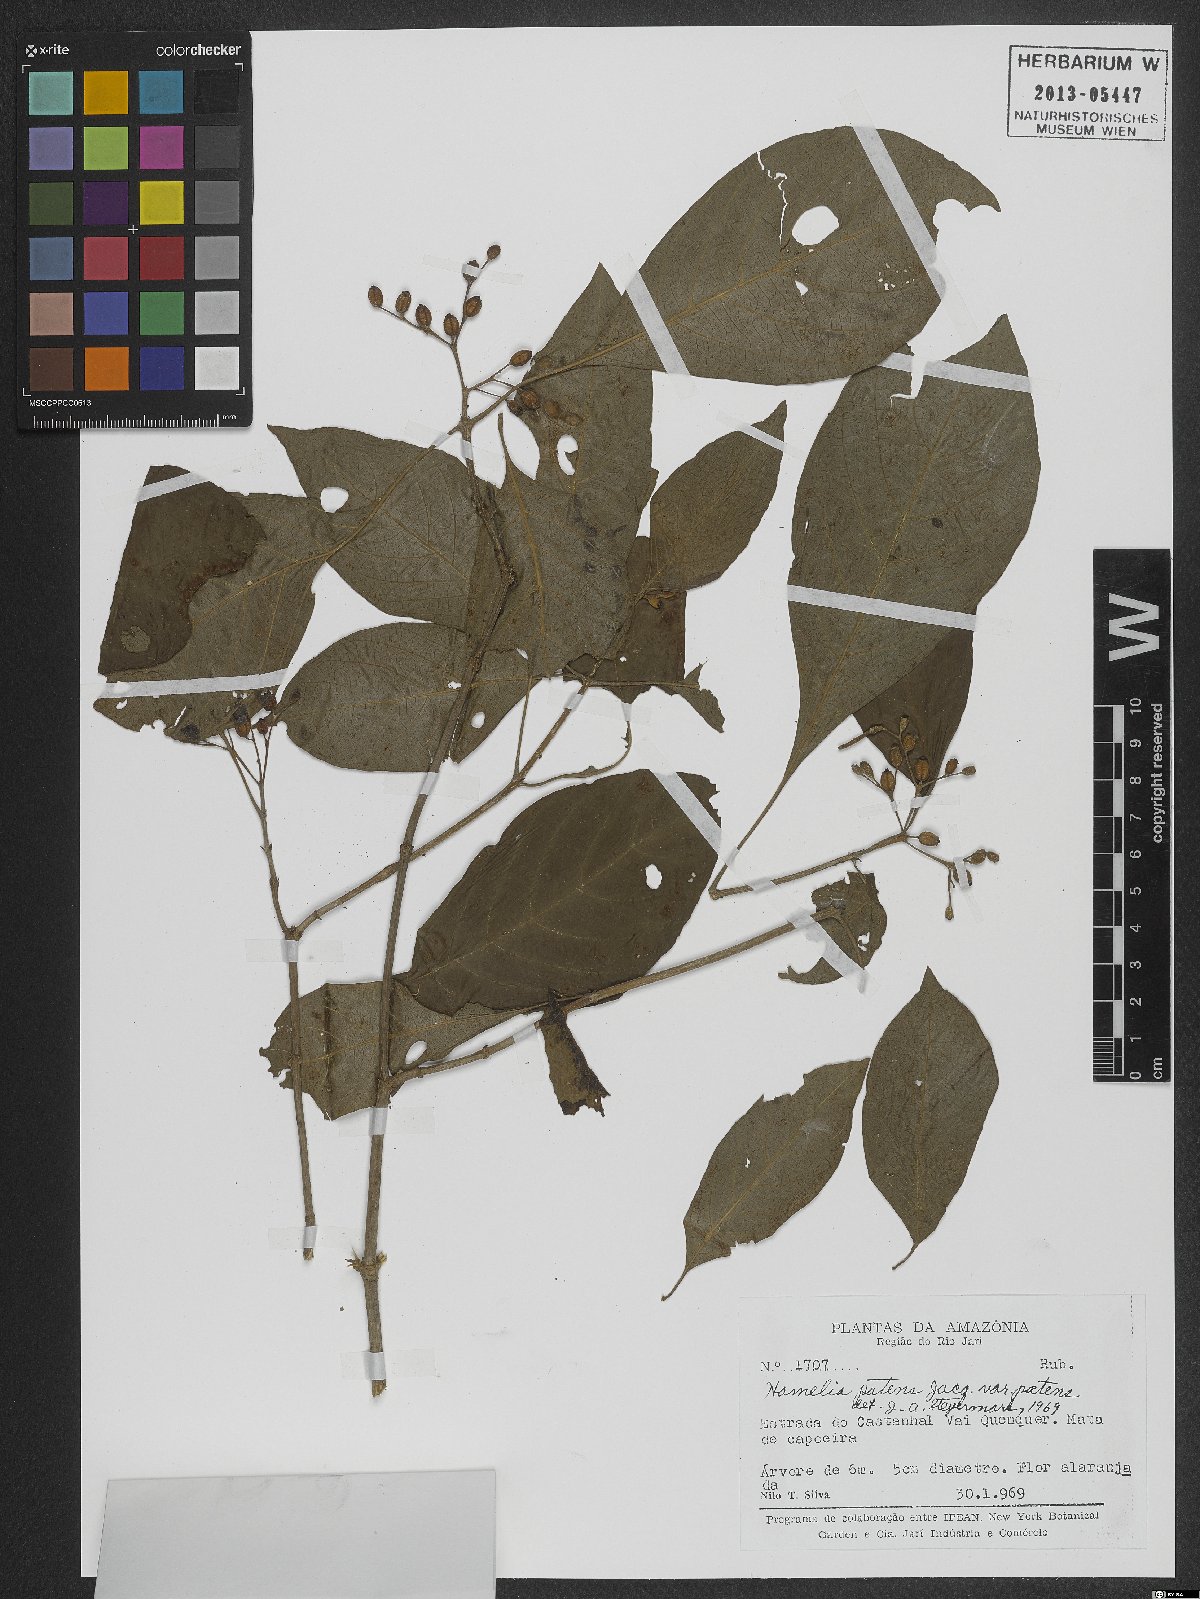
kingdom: Plantae
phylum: Tracheophyta
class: Magnoliopsida
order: Gentianales
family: Rubiaceae
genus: Hamelia
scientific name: Hamelia patens
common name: Redhead
